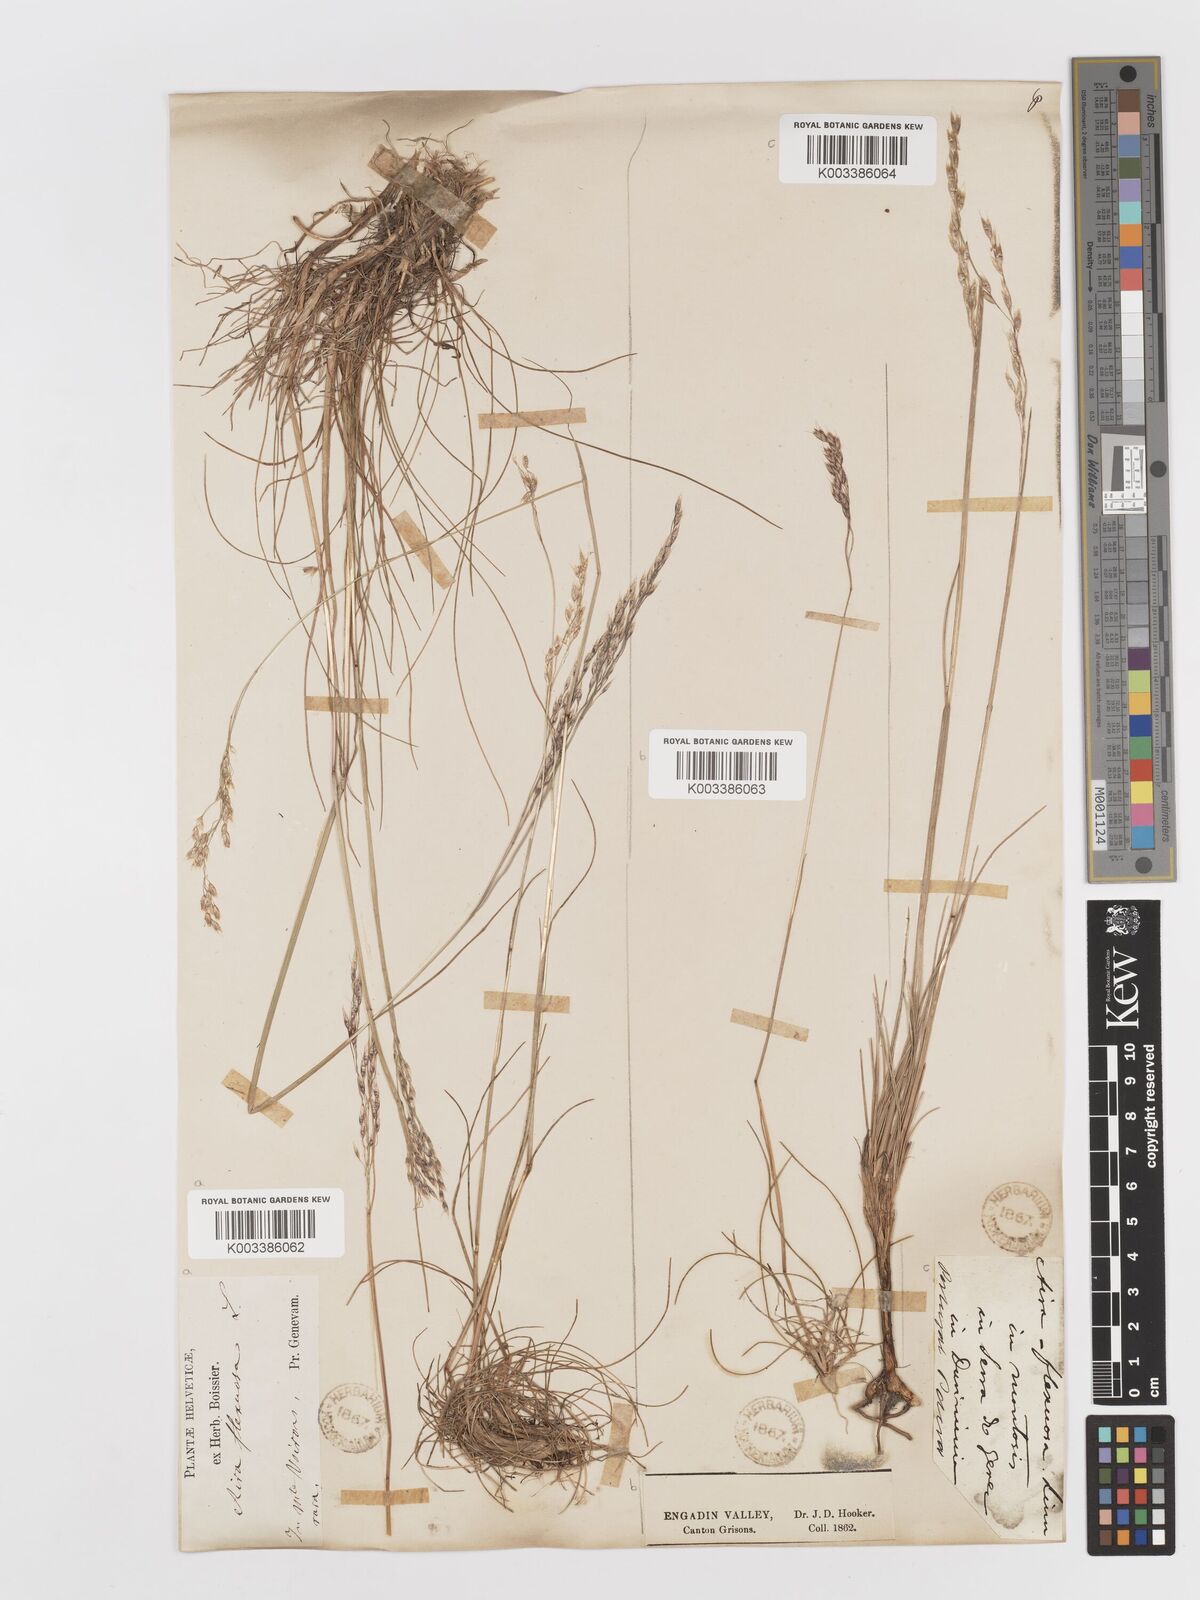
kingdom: Plantae
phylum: Tracheophyta
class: Liliopsida
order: Poales
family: Poaceae
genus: Avenella
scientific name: Avenella flexuosa
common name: Wavy hairgrass
